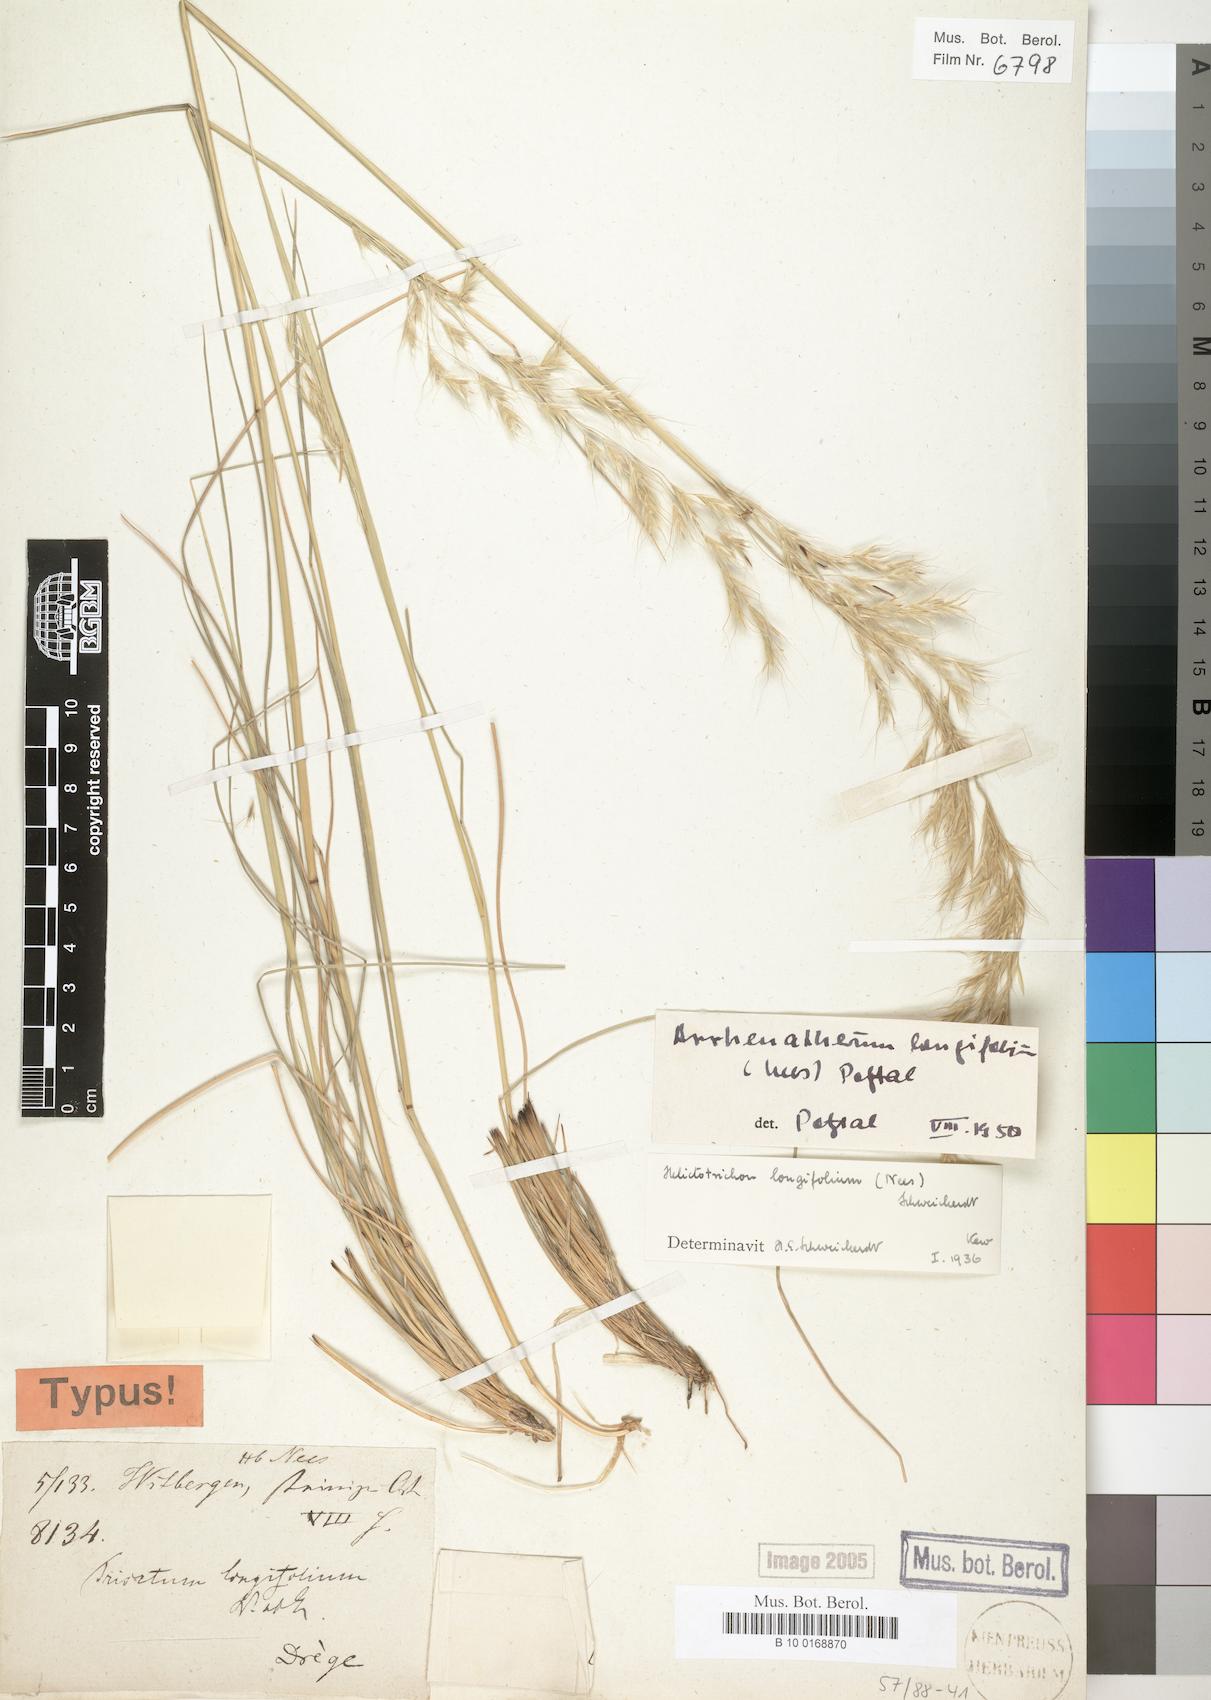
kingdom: Plantae
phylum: Tracheophyta
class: Liliopsida
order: Poales
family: Poaceae
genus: Trisetopsis
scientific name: Trisetopsis longifolia
